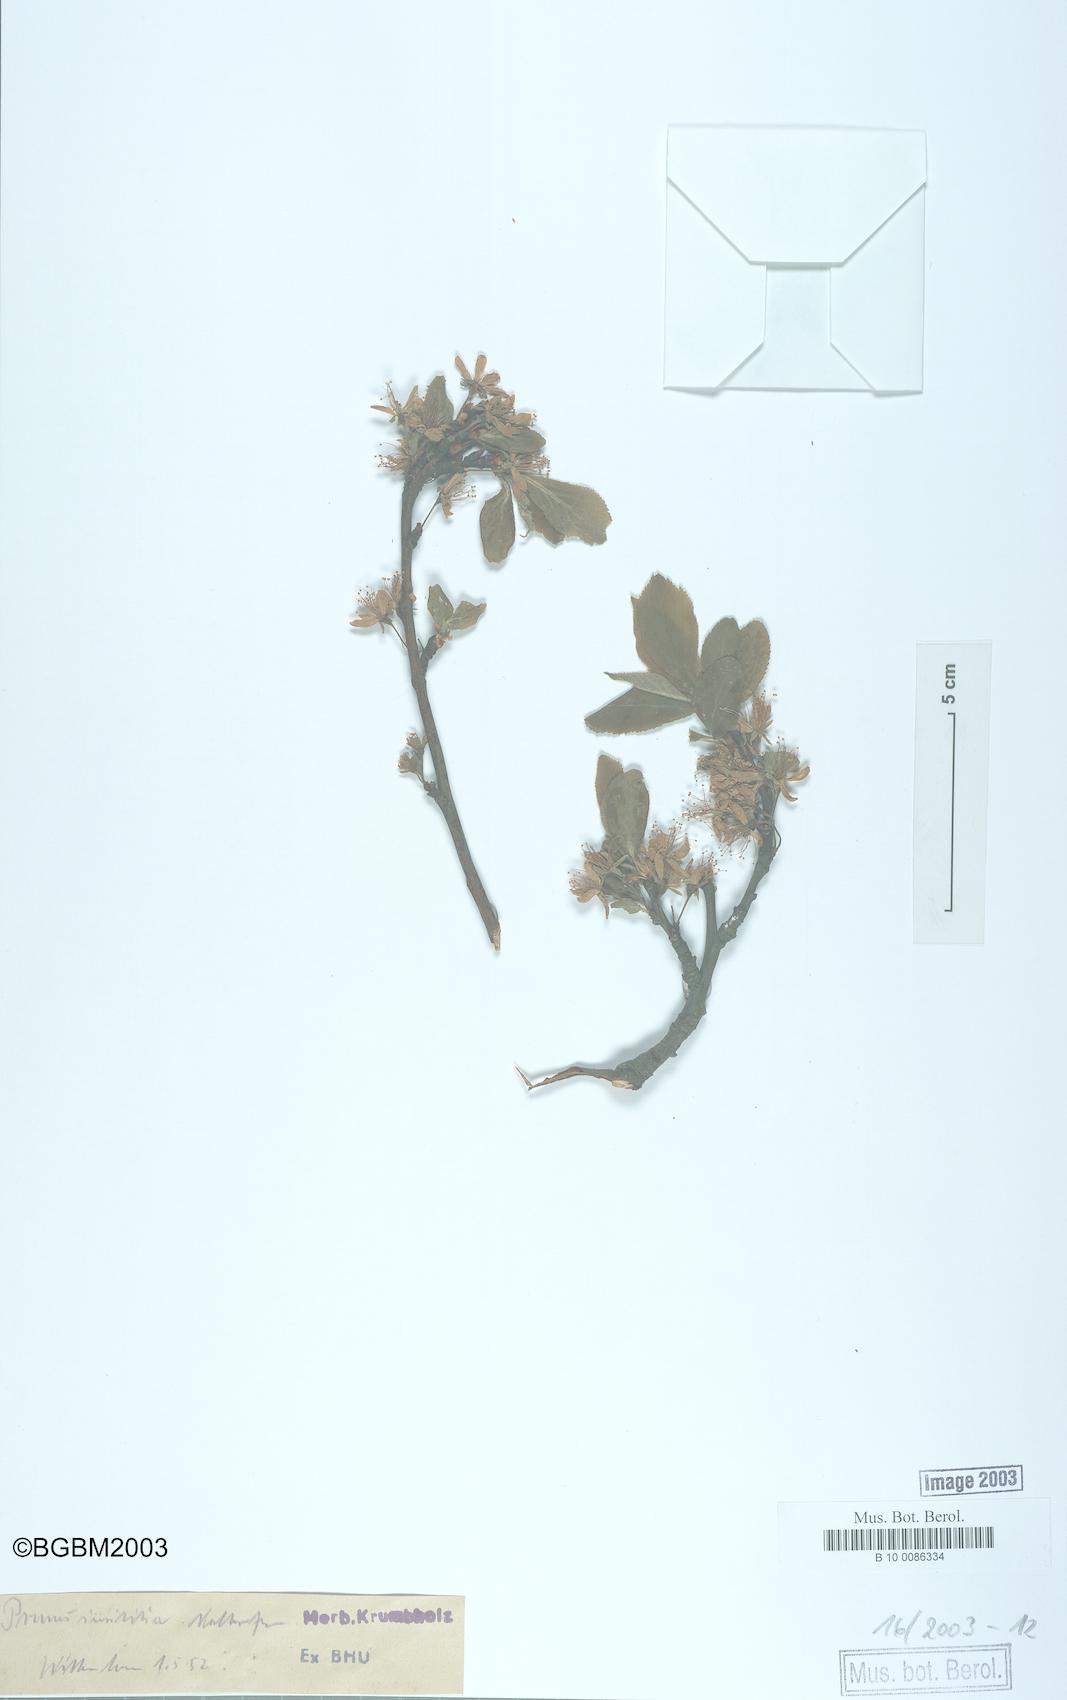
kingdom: Plantae
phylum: Tracheophyta
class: Magnoliopsida
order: Rosales
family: Rosaceae
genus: Prunus
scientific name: Prunus domestica
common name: Wild plum
